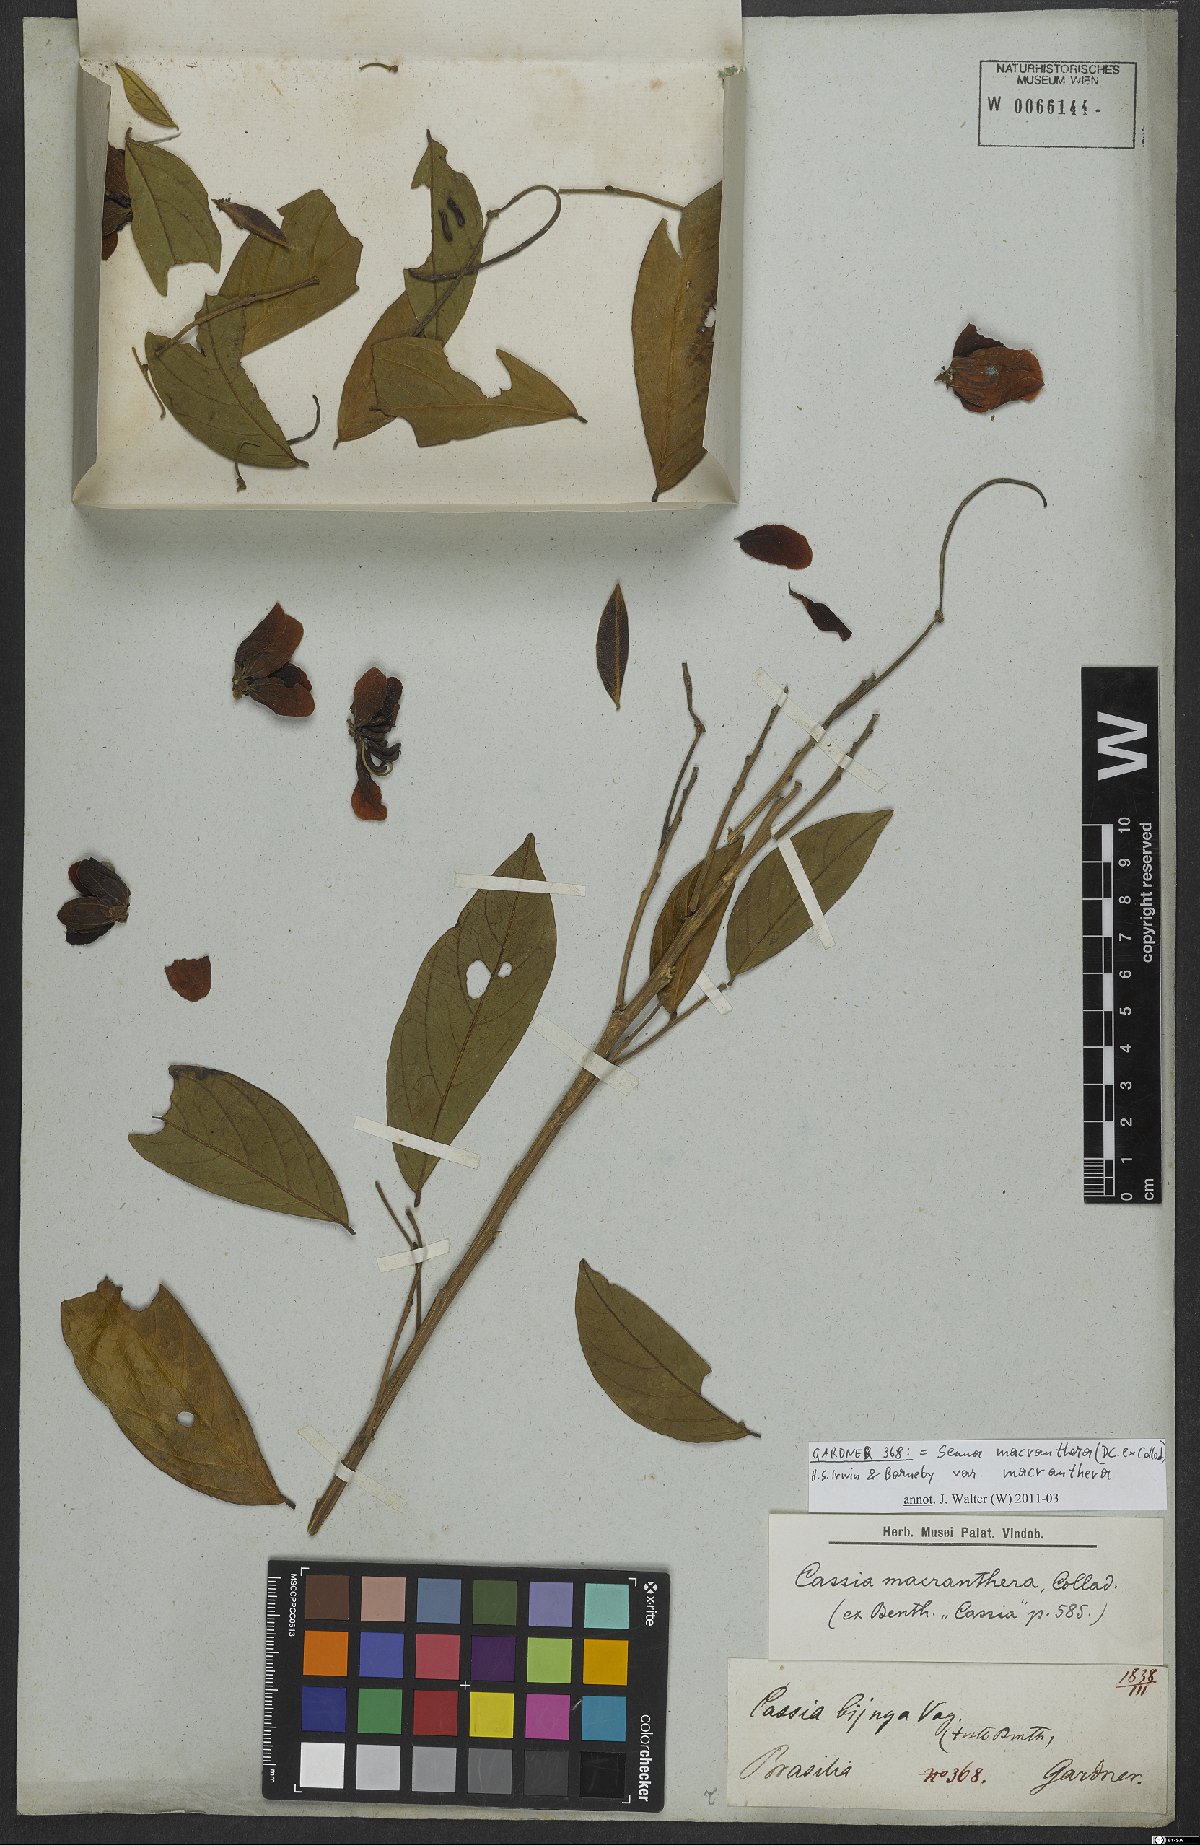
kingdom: Plantae
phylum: Tracheophyta
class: Magnoliopsida
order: Fabales
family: Fabaceae
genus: Senna
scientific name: Senna macranthera
